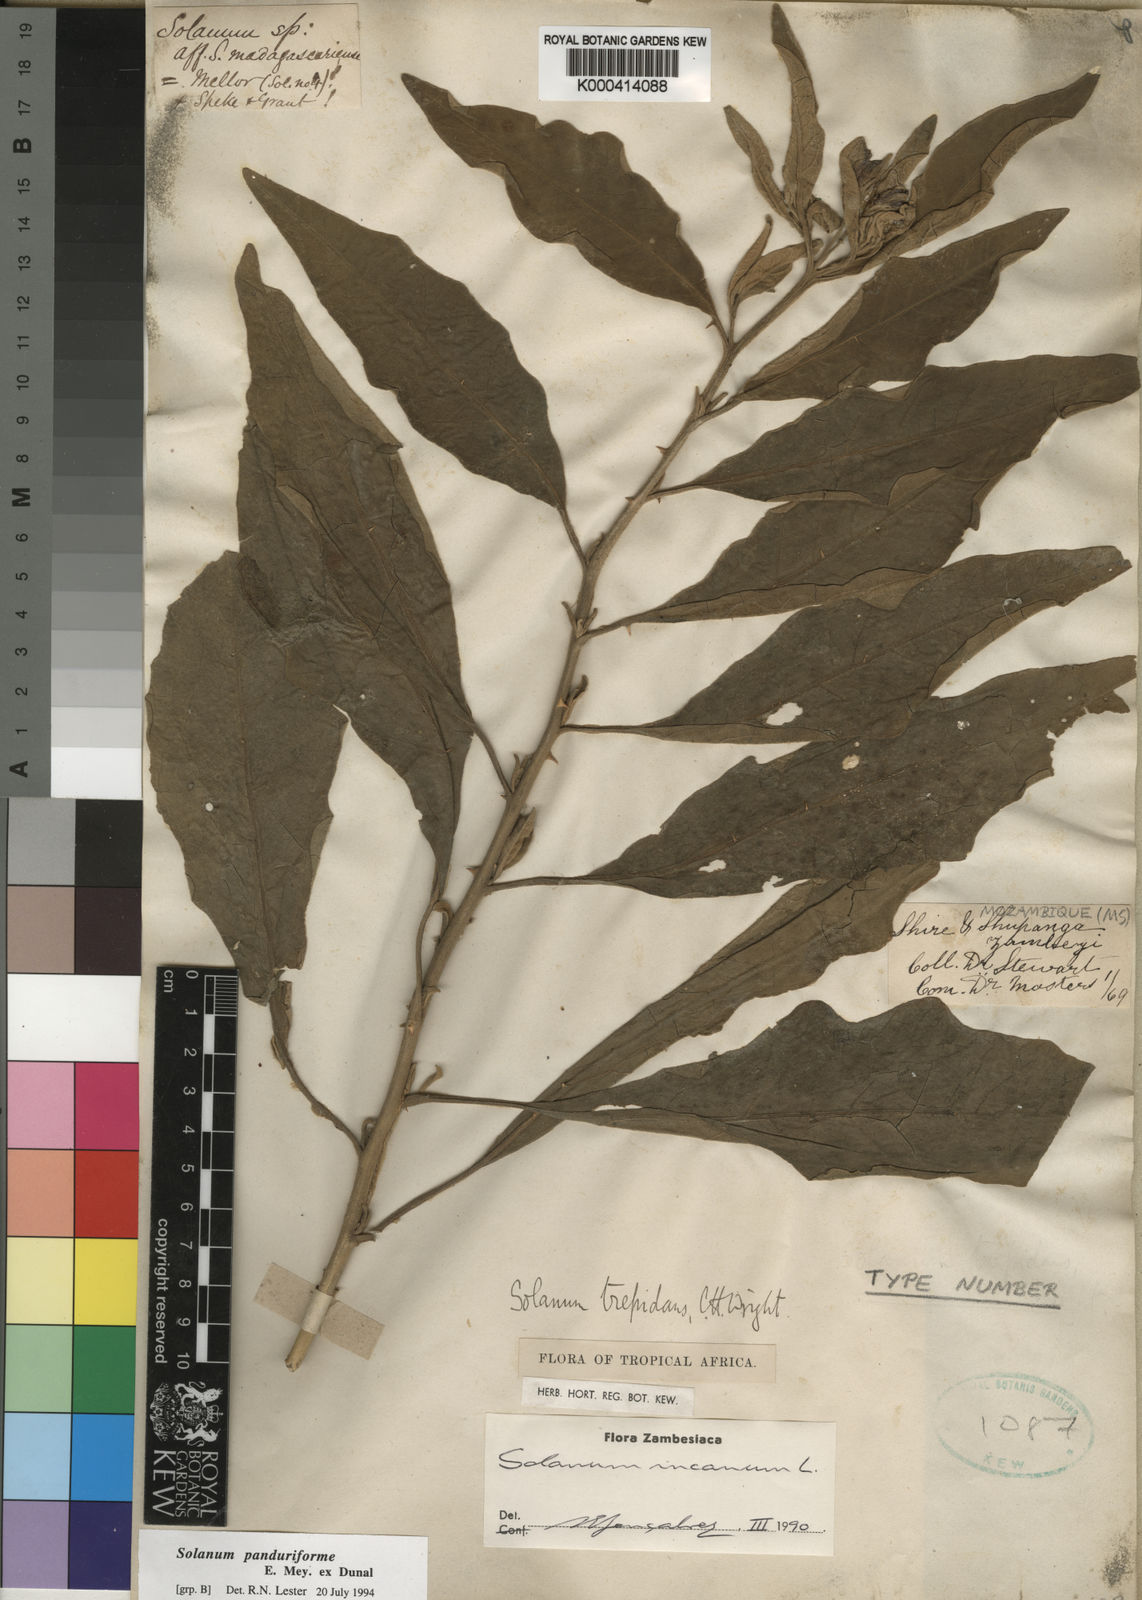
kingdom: Plantae
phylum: Tracheophyta
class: Magnoliopsida
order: Solanales
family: Solanaceae
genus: Solanum
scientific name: Solanum incanum
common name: Bitter apple
